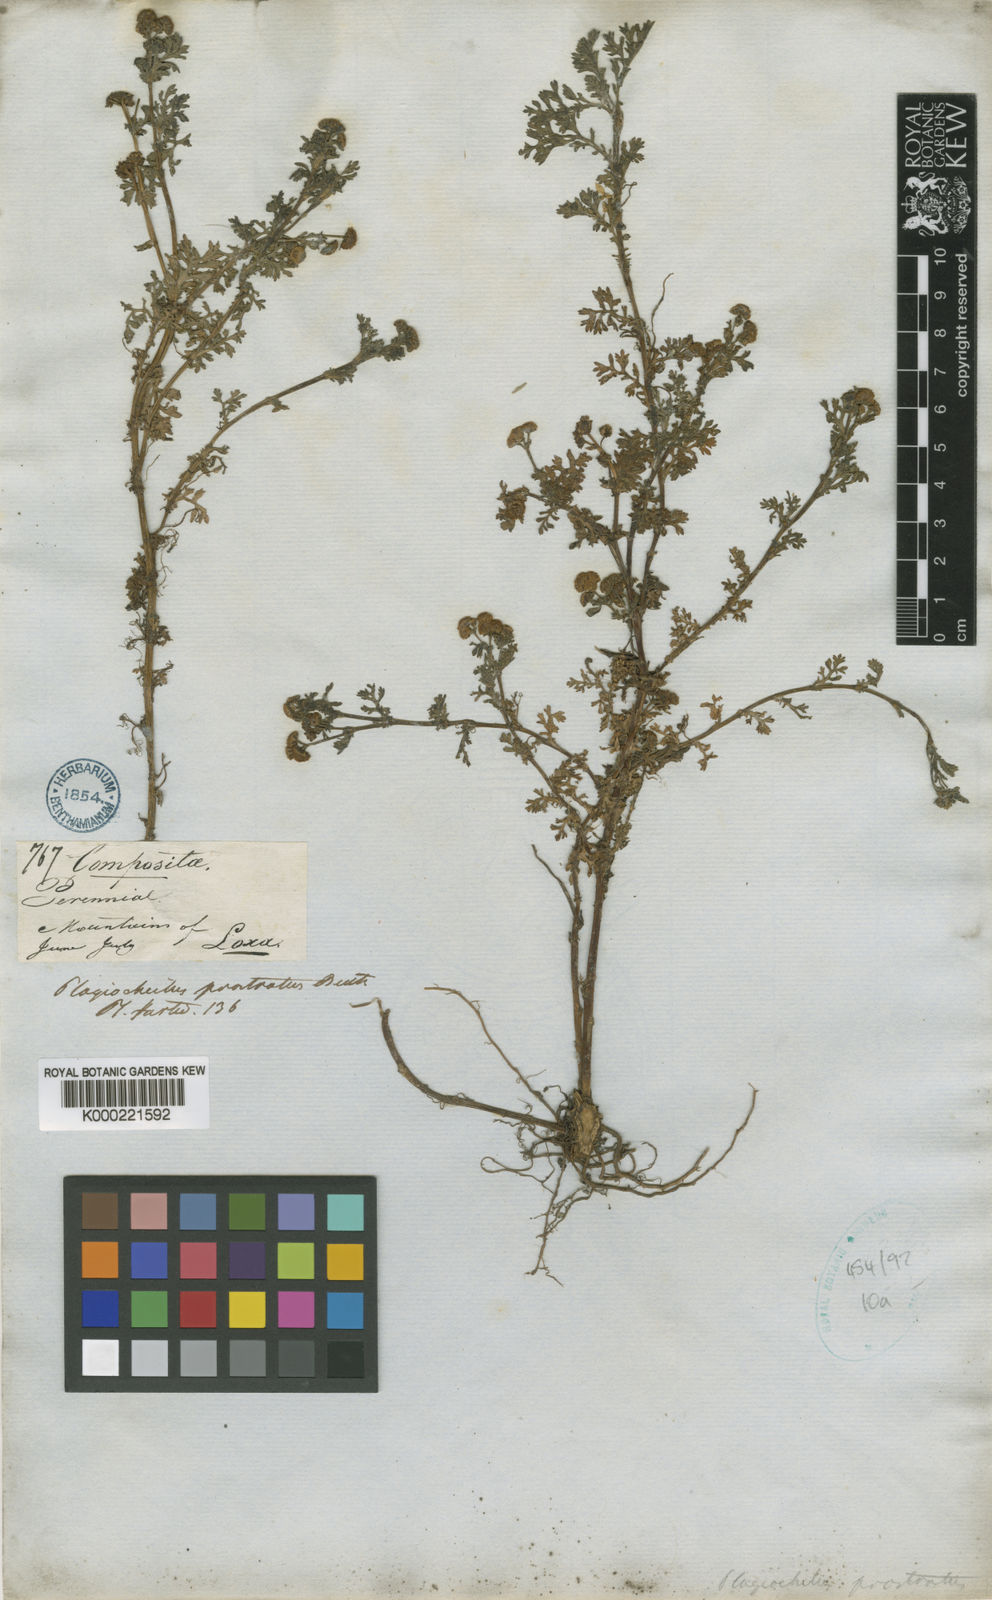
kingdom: Plantae
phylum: Tracheophyta
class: Magnoliopsida
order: Asterales
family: Asteraceae
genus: Plagiocheilus
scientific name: Plagiocheilus bogotensis
